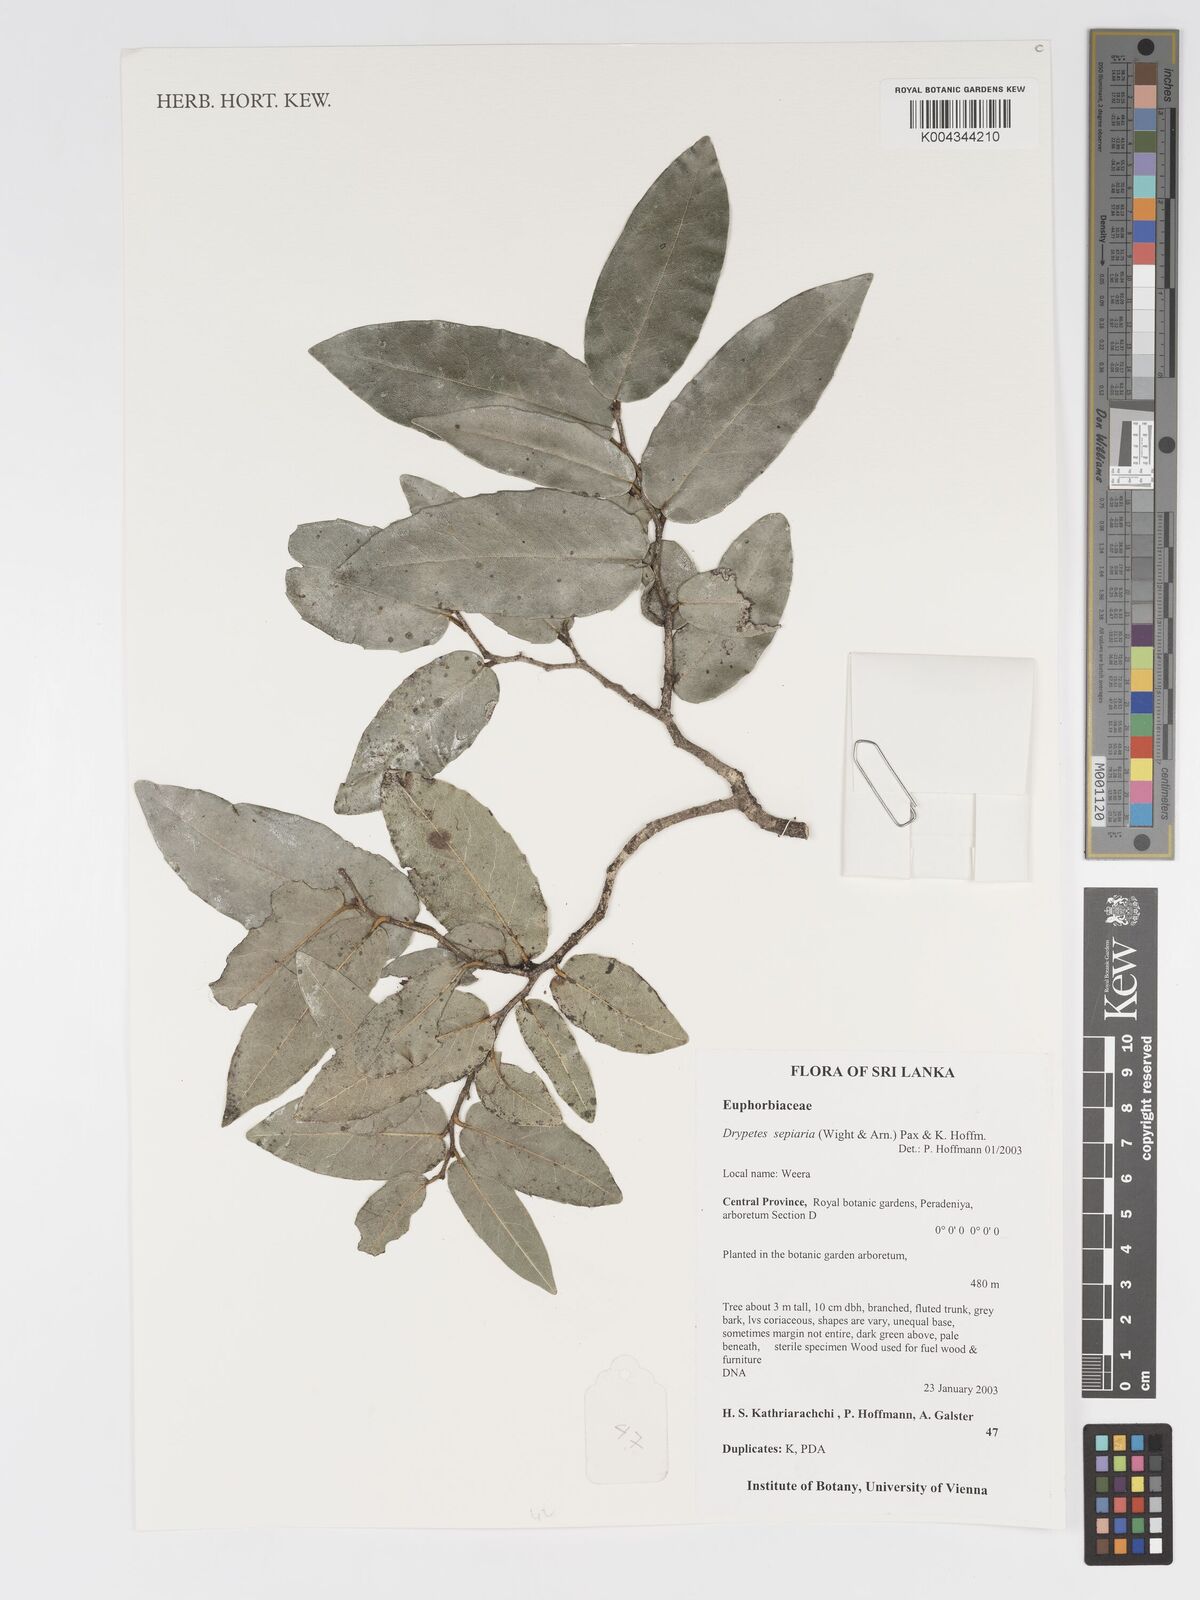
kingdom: Plantae
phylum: Tracheophyta
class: Magnoliopsida
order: Malpighiales
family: Putranjivaceae
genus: Drypetes
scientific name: Drypetes sepiaria
